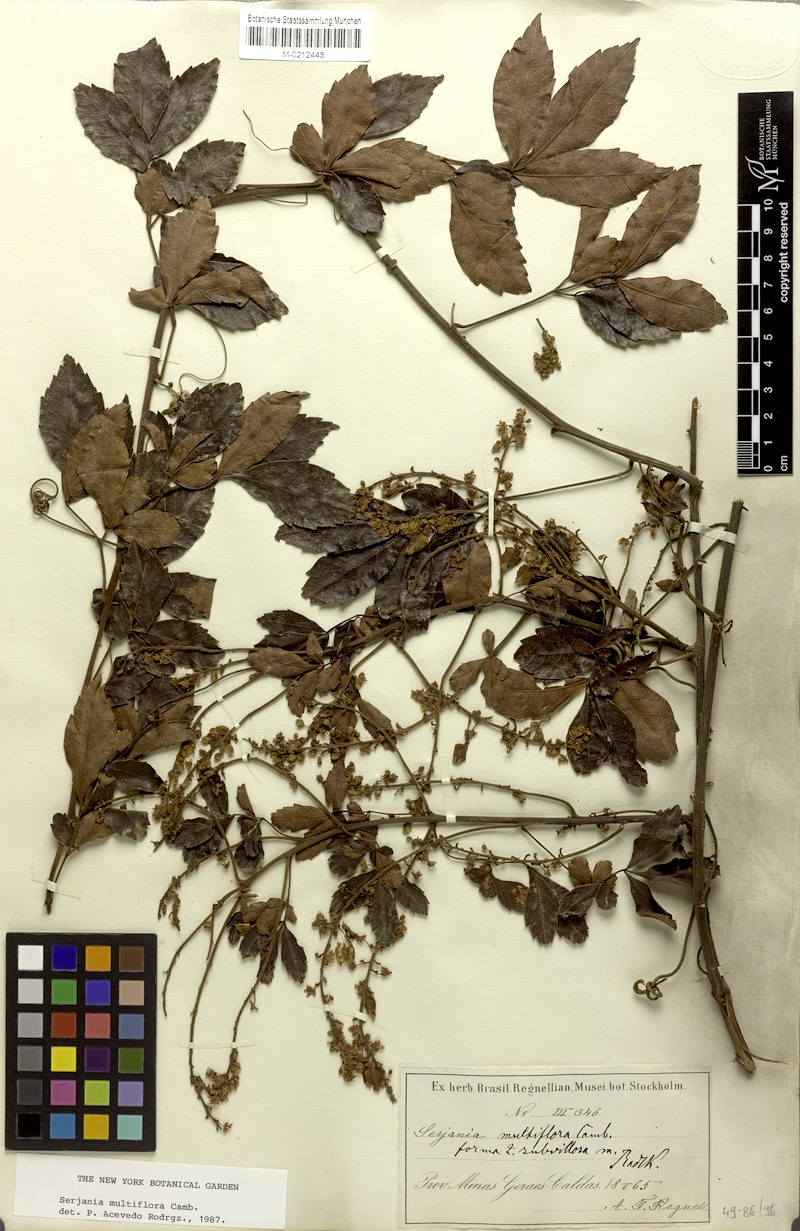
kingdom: Plantae
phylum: Tracheophyta
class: Magnoliopsida
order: Sapindales
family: Sapindaceae
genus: Serjania
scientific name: Serjania multiflora
